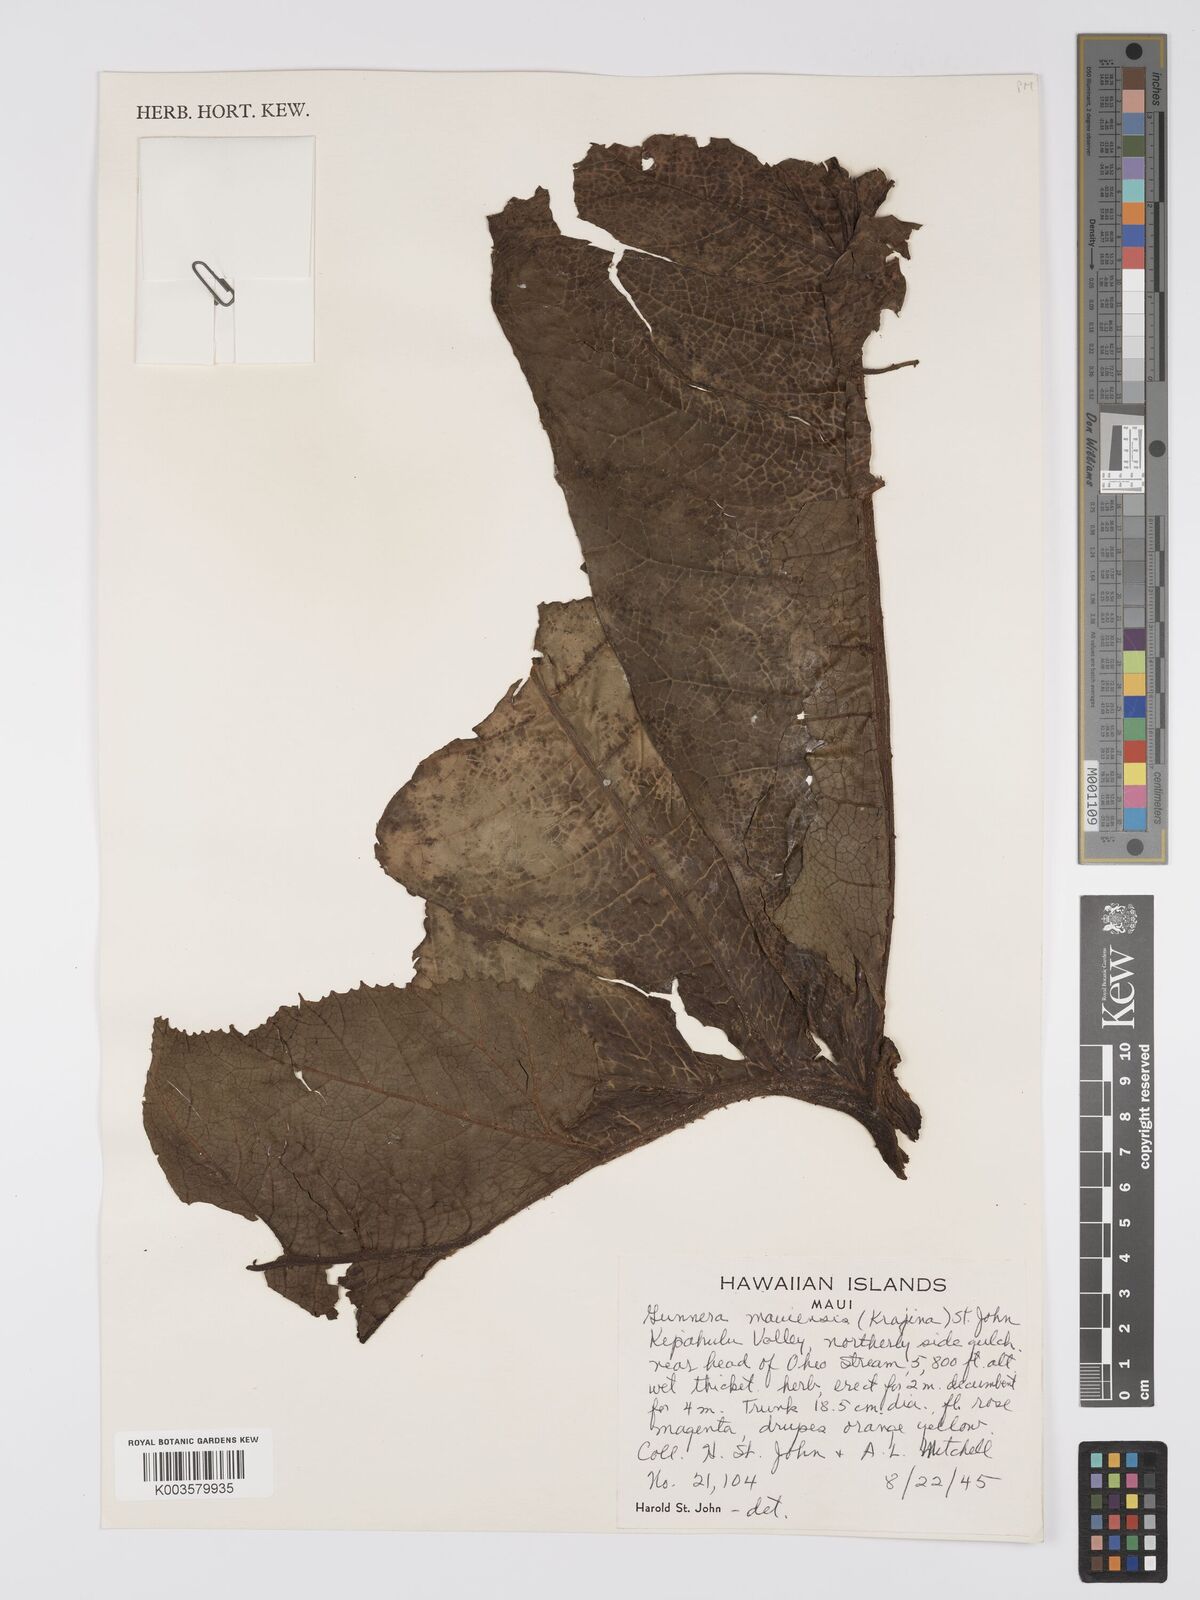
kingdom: Plantae
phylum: Tracheophyta
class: Magnoliopsida
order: Gunnerales
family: Gunneraceae
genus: Gunnera
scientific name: Gunnera petaloidea
